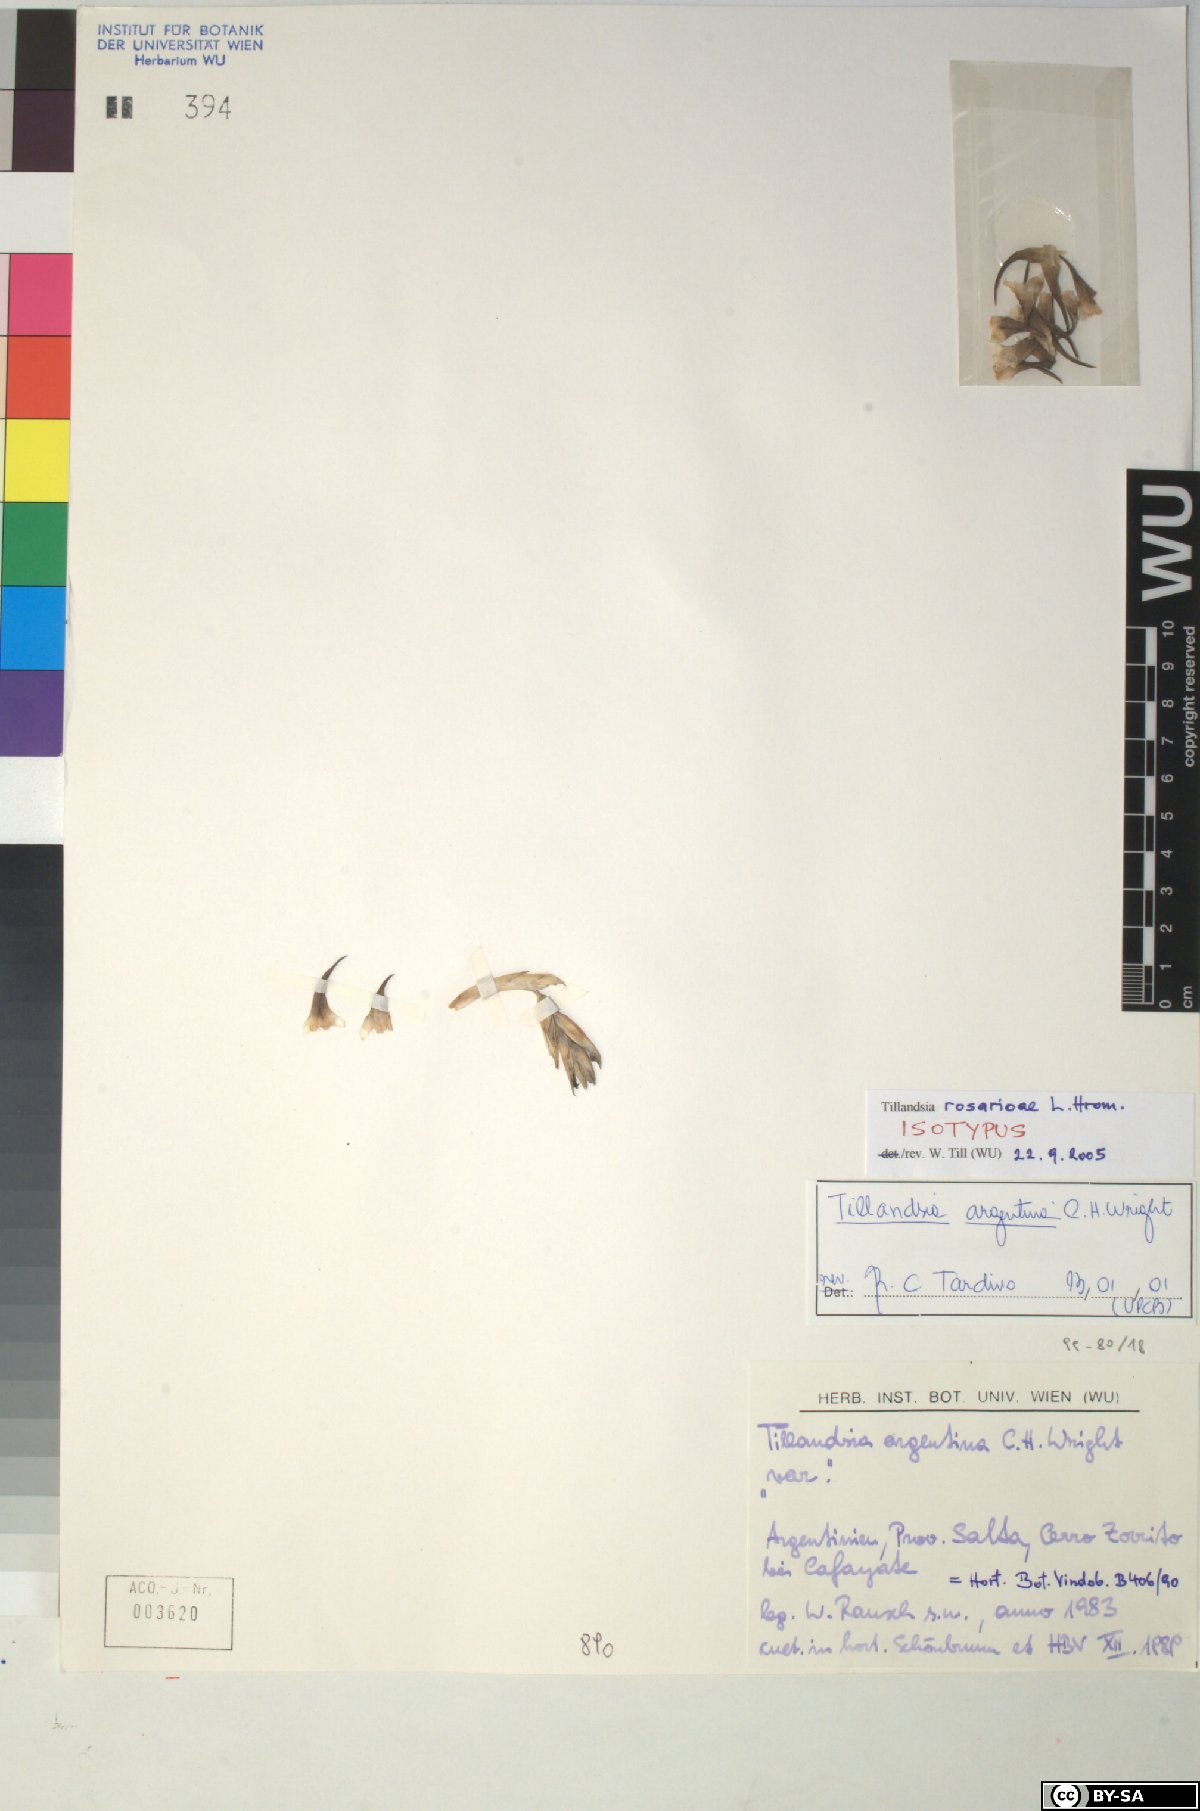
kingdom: Plantae
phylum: Tracheophyta
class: Liliopsida
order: Poales
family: Bromeliaceae
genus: Tillandsia
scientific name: Tillandsia rosarioae
